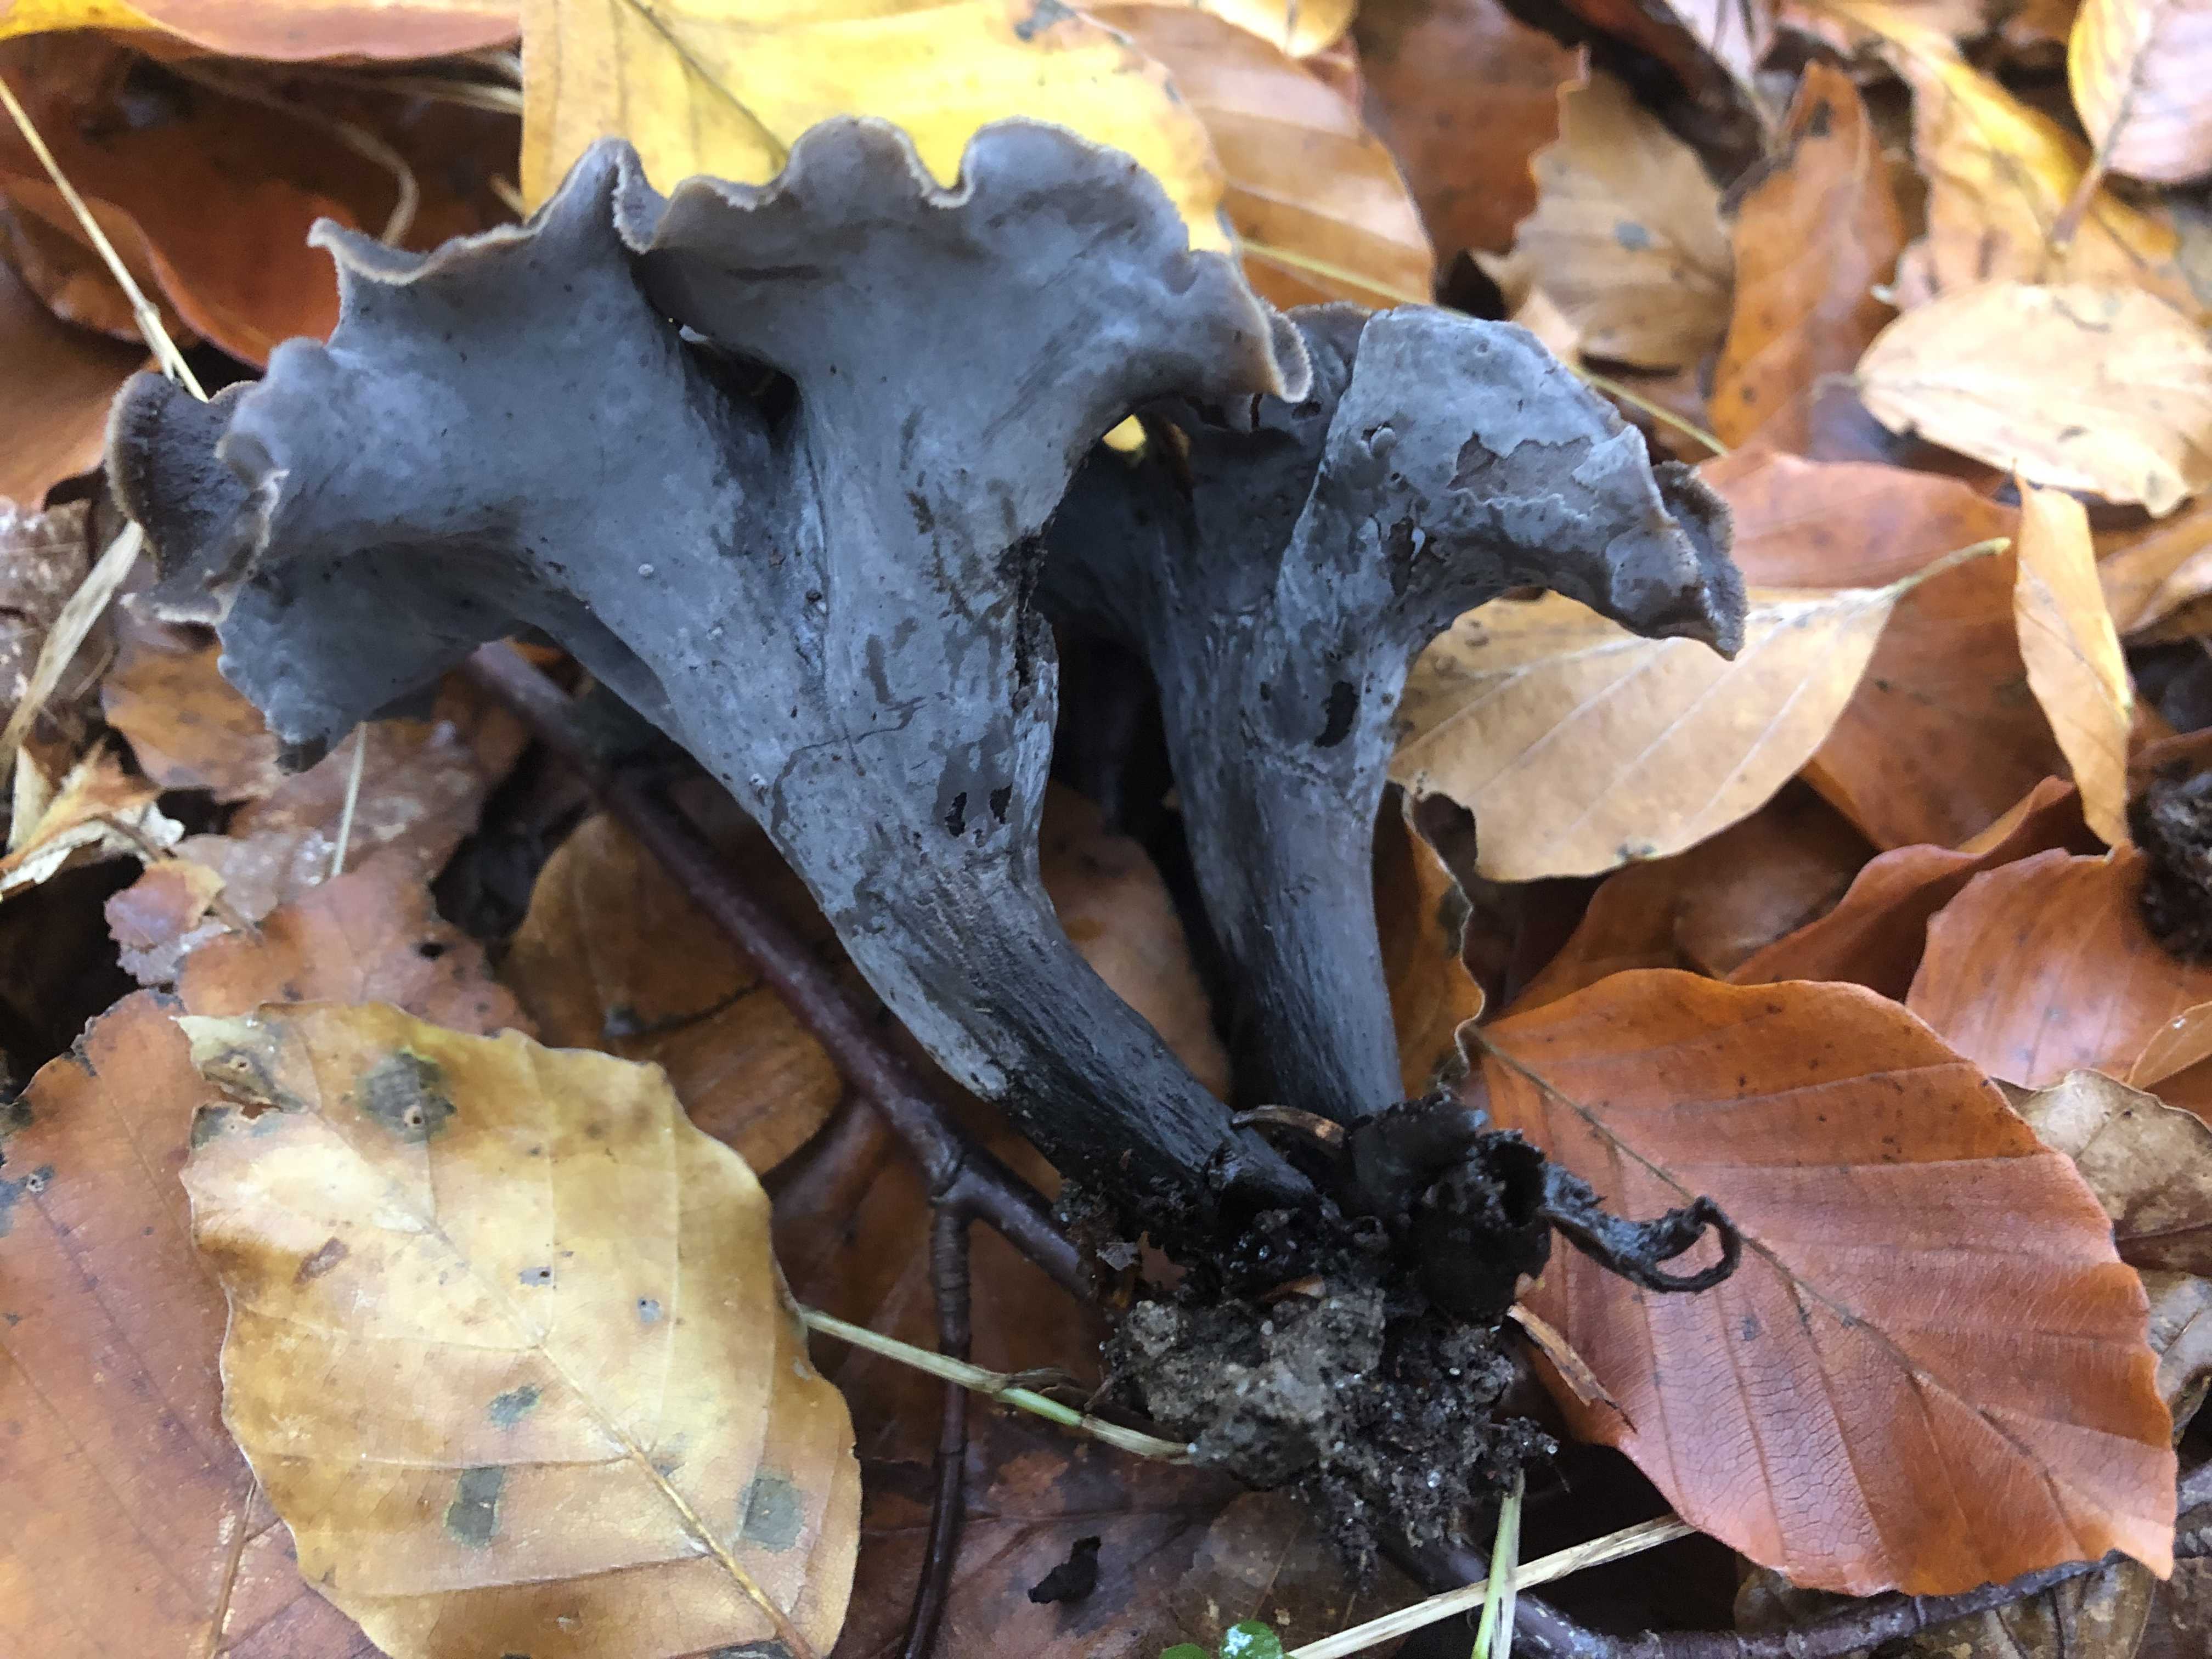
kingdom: Fungi
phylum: Basidiomycota
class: Agaricomycetes
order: Cantharellales
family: Hydnaceae
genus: Craterellus
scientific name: Craterellus cornucopioides
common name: trompetsvamp
